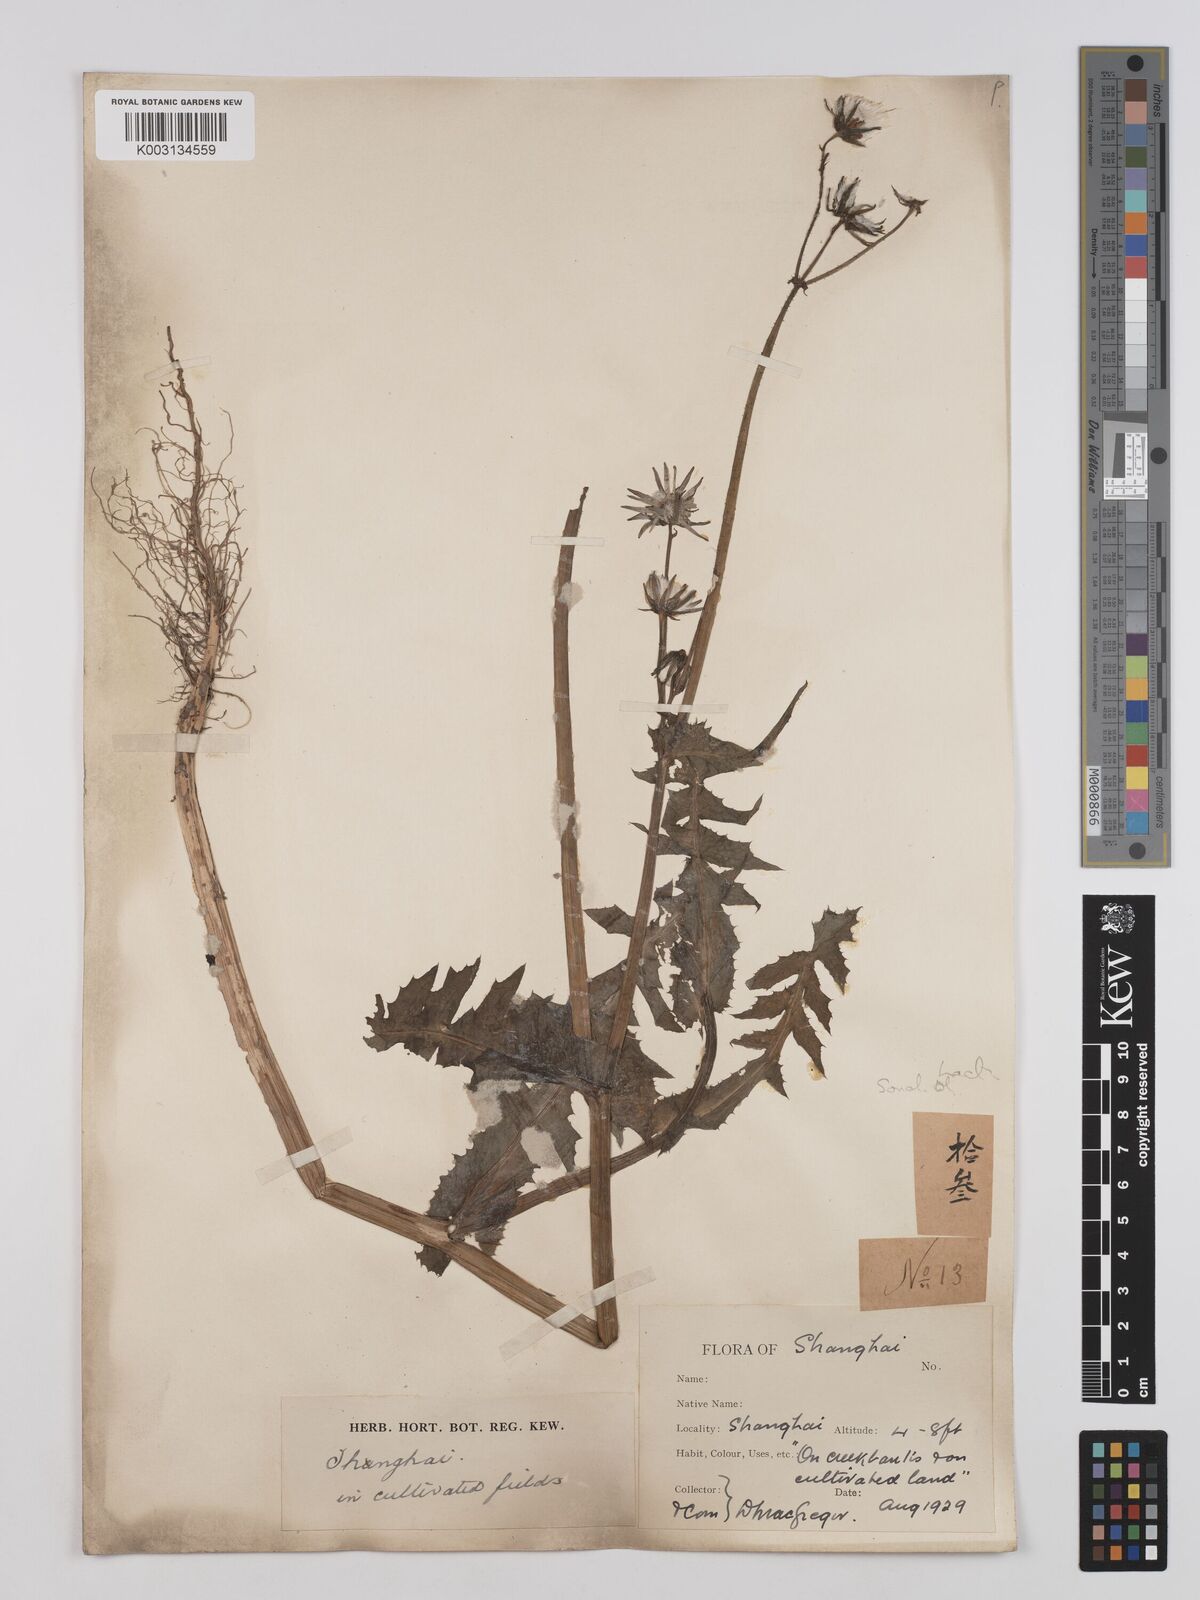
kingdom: Plantae
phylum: Tracheophyta
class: Magnoliopsida
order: Asterales
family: Asteraceae
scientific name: Asteraceae
